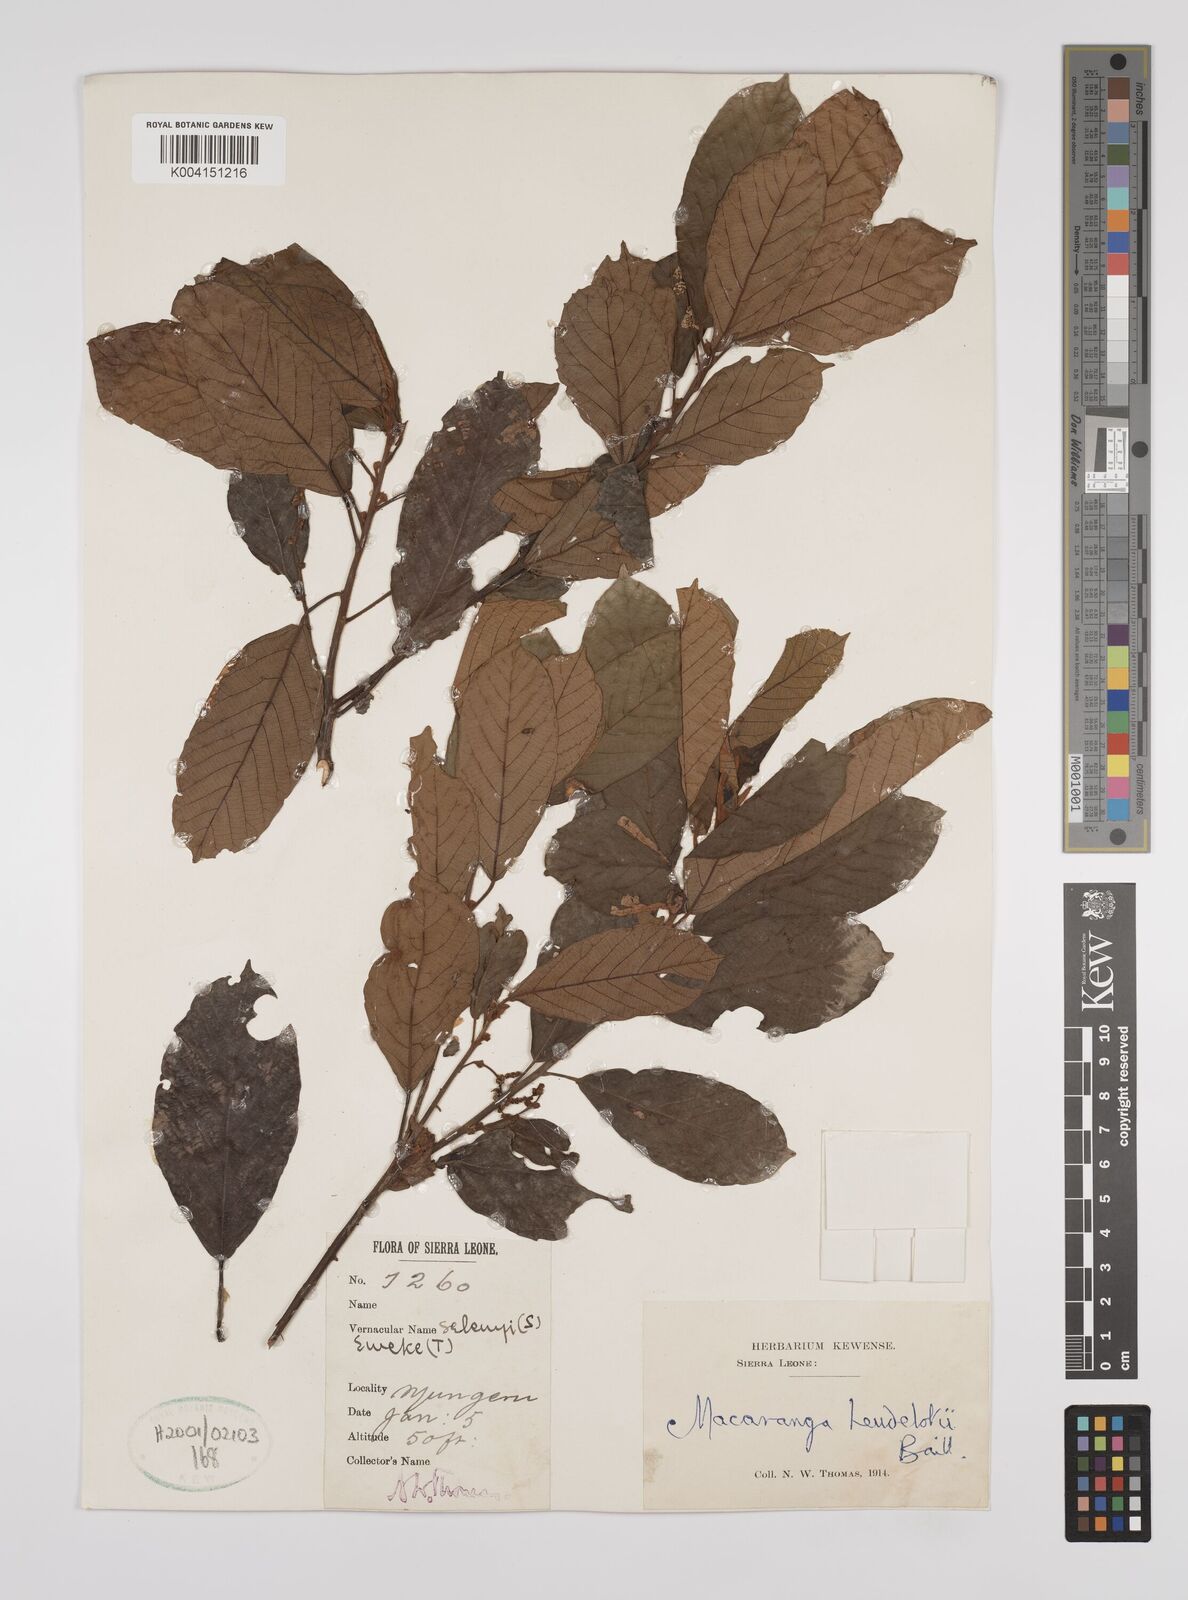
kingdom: Plantae
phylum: Tracheophyta
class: Magnoliopsida
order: Malpighiales
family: Euphorbiaceae
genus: Macaranga
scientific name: Macaranga heudelotii
